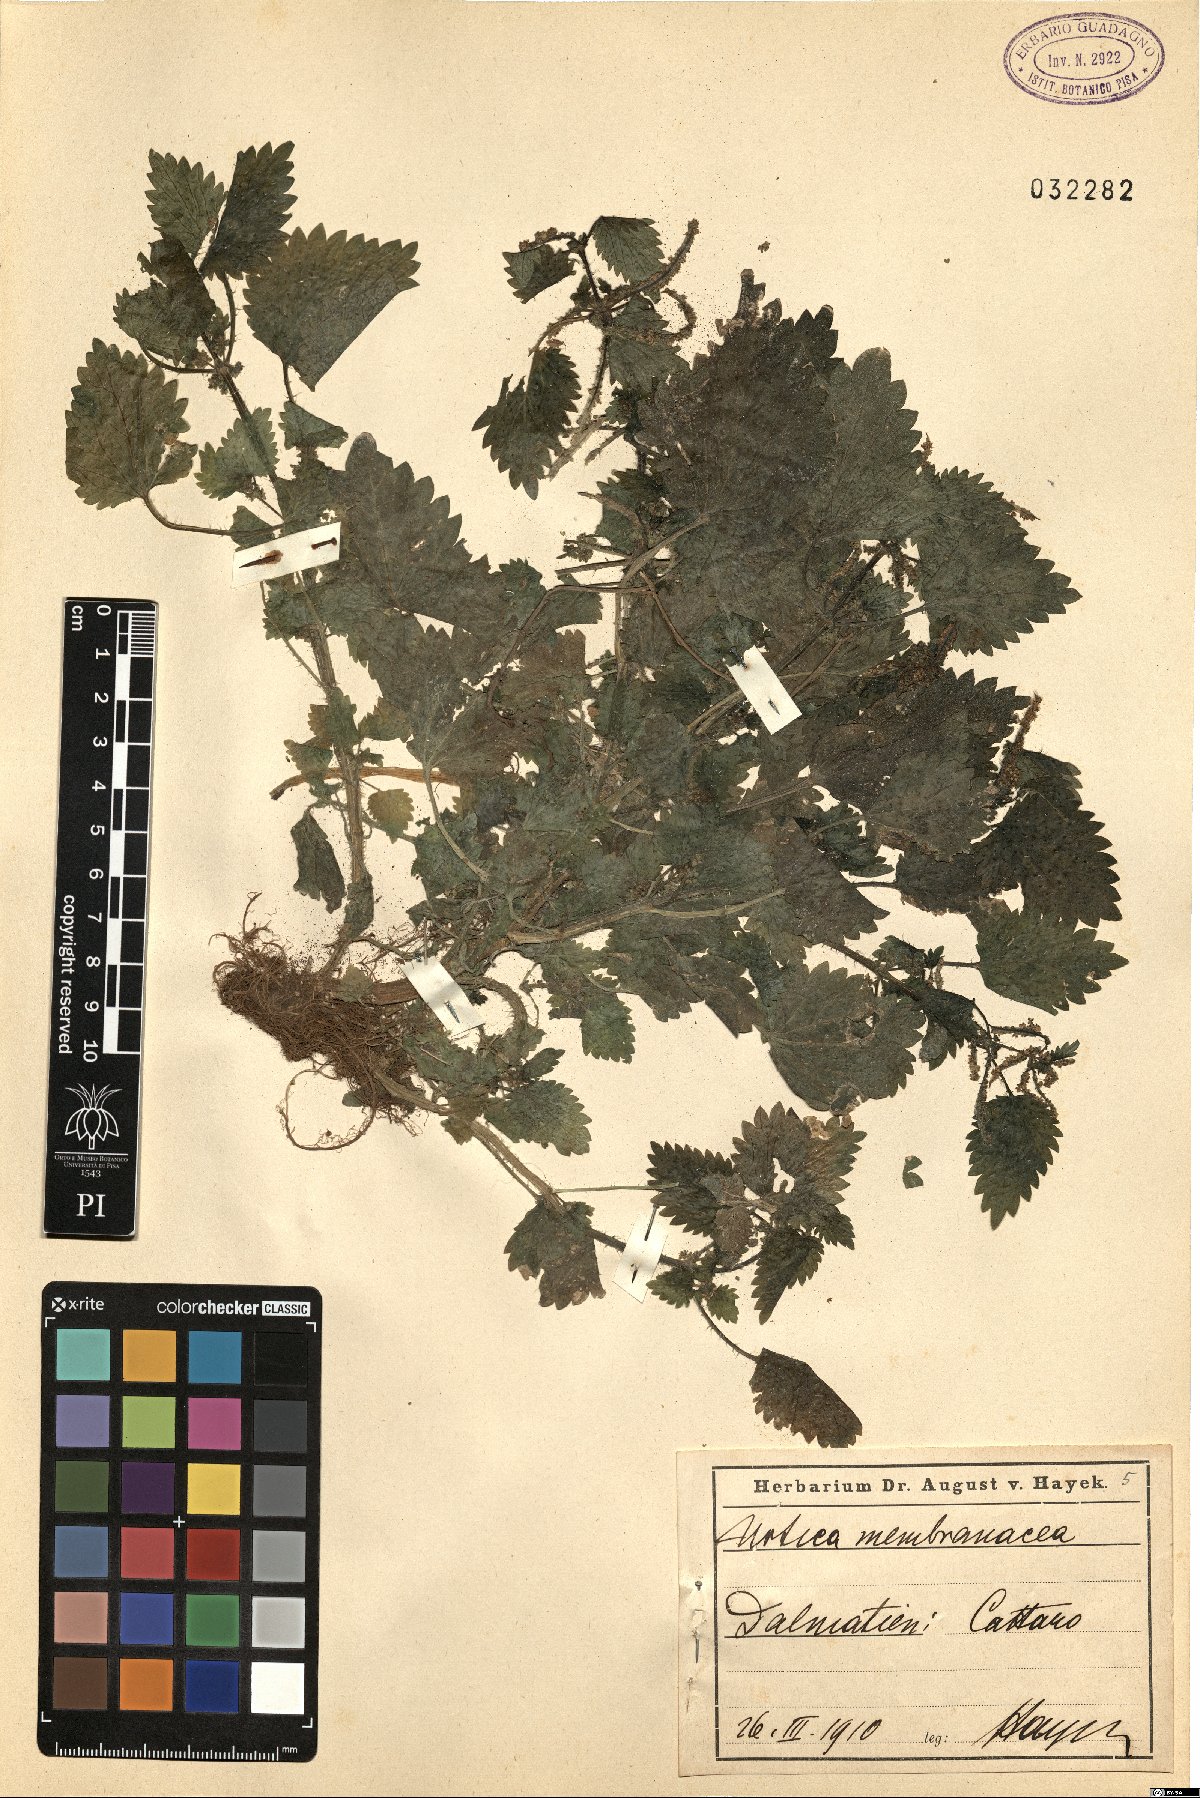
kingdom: Plantae
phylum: Tracheophyta
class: Magnoliopsida
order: Rosales
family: Urticaceae
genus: Urtica
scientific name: Urtica membranacea
